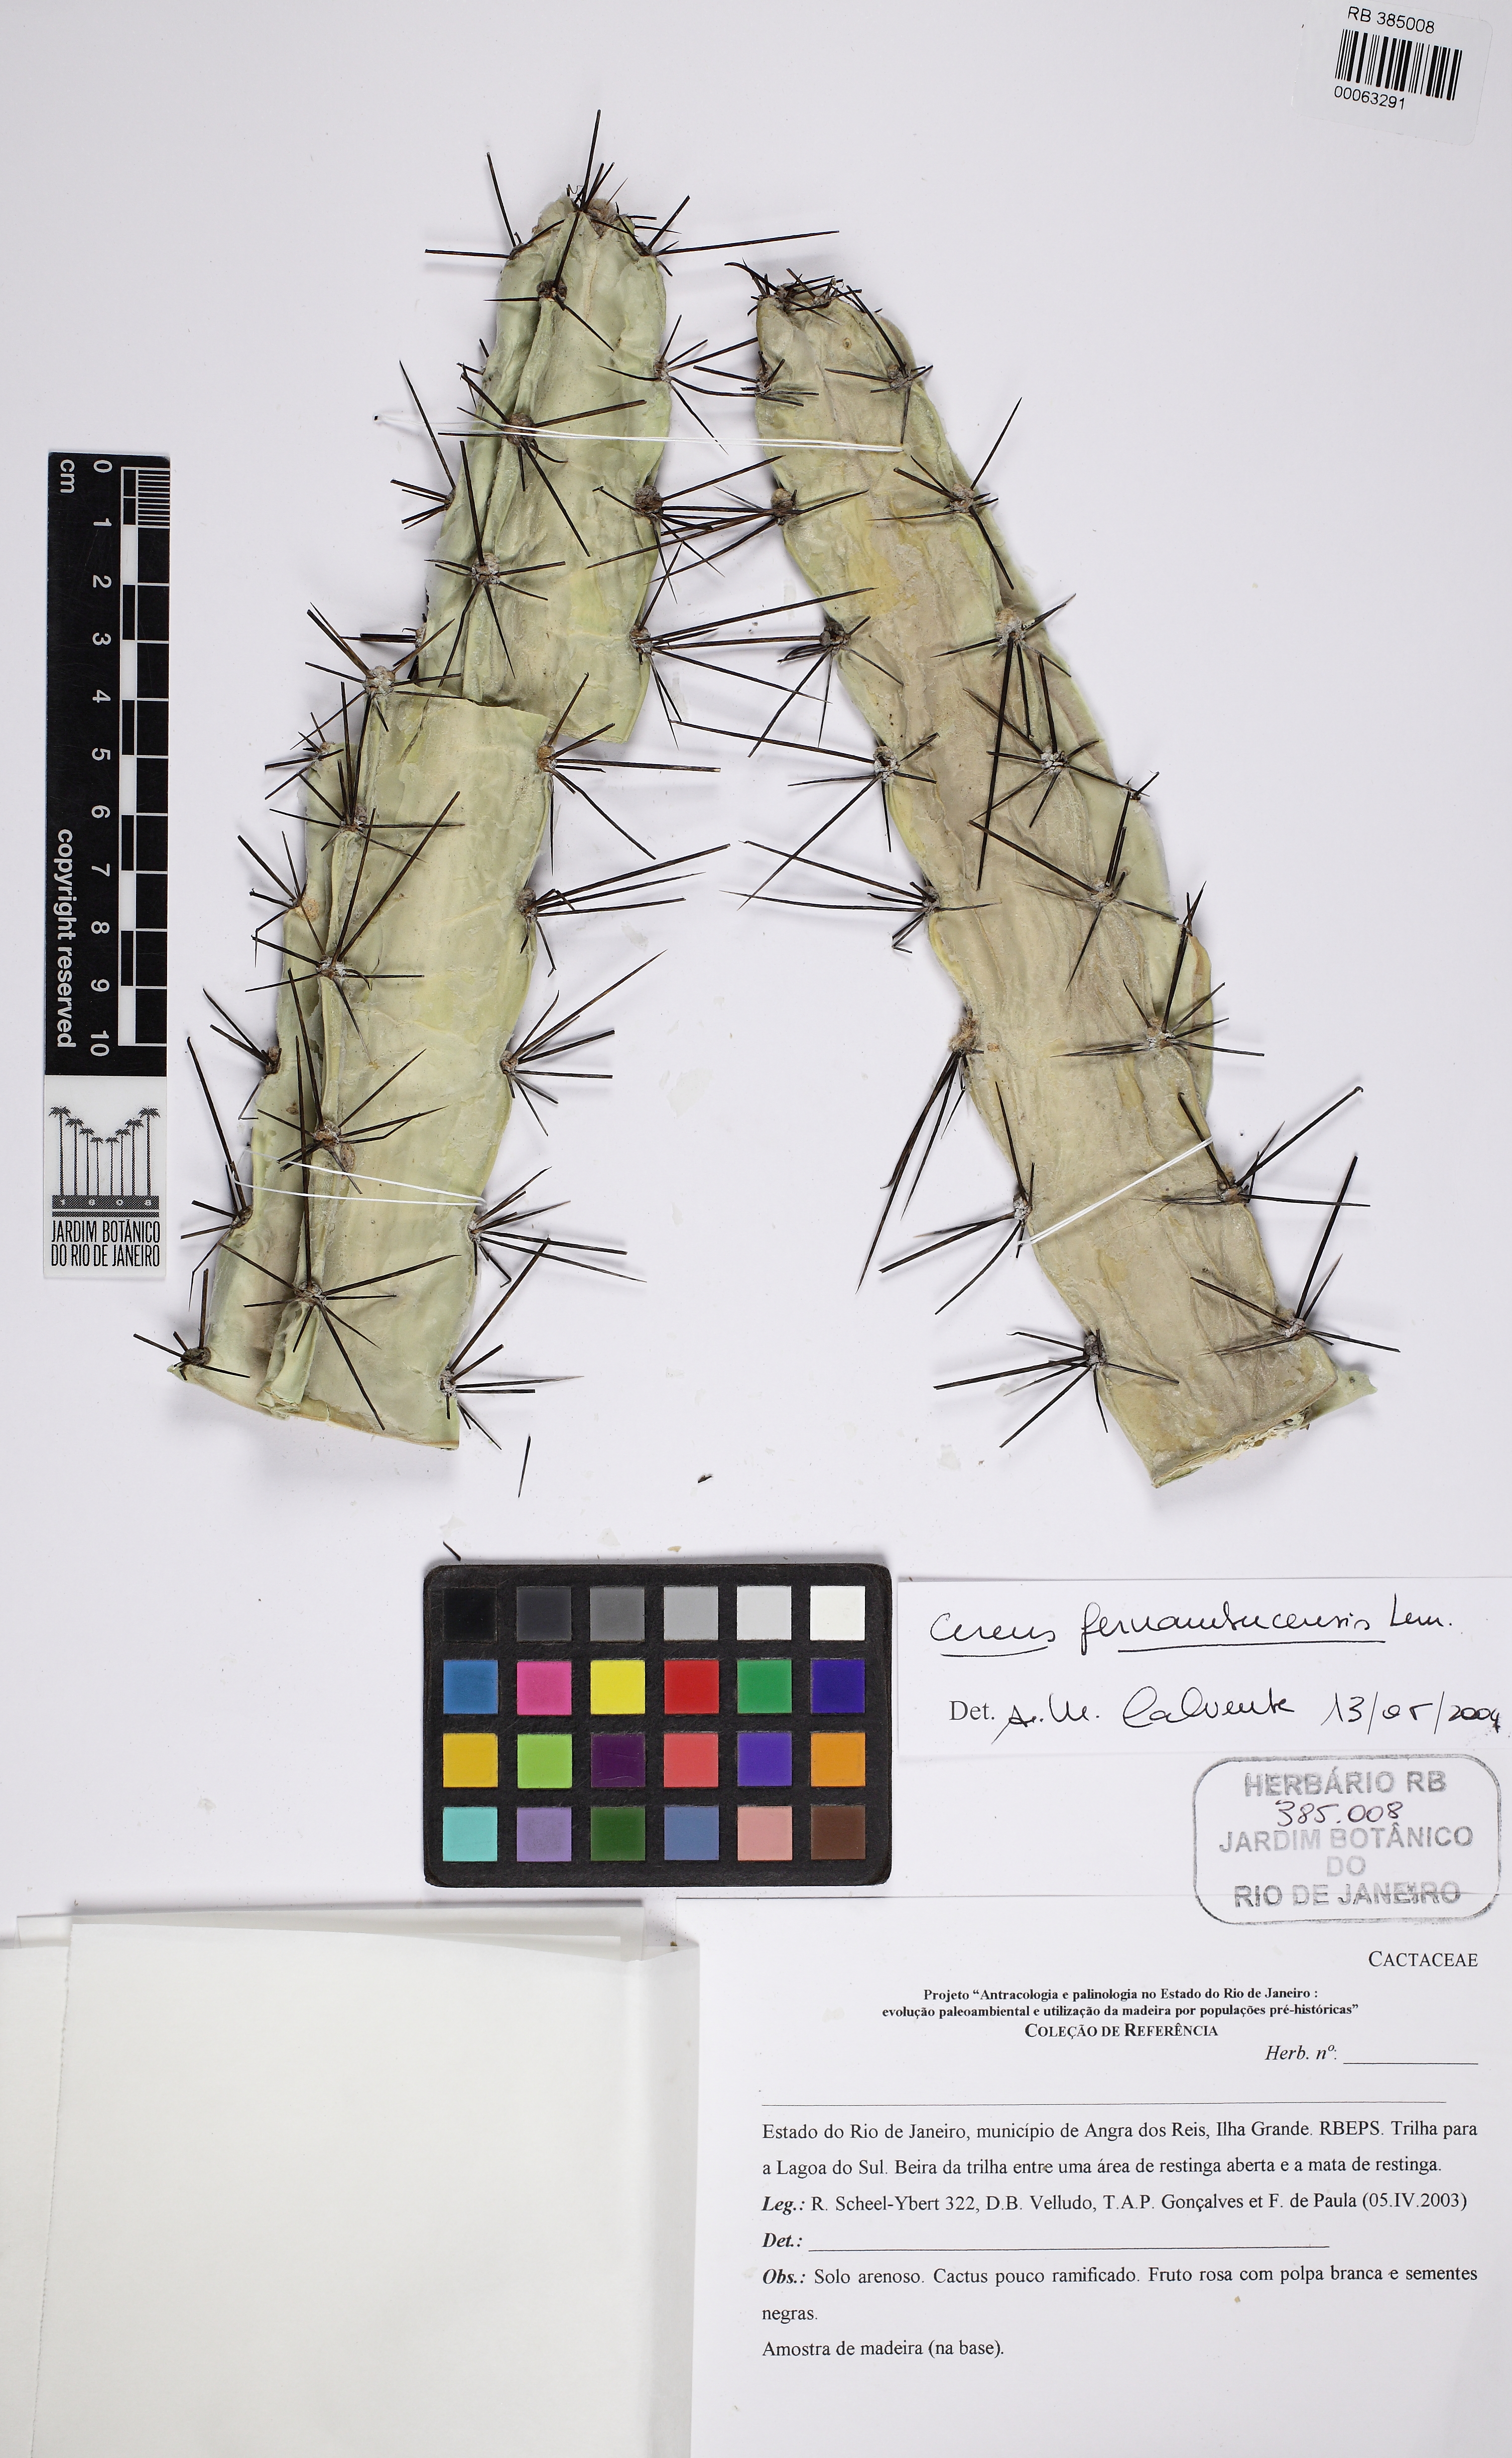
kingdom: Plantae
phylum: Tracheophyta
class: Magnoliopsida
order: Caryophyllales
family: Cactaceae
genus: Cereus
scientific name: Cereus fernambucensis
